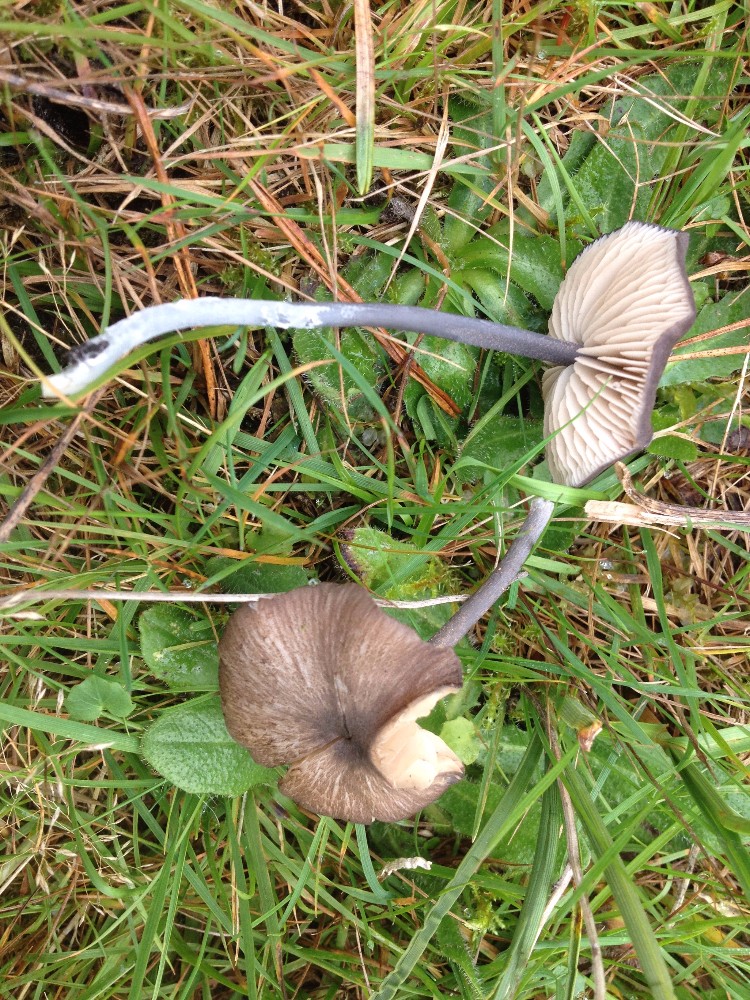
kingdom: Fungi
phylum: Basidiomycota
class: Agaricomycetes
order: Agaricales
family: Entolomataceae
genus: Entoloma
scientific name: Entoloma viiduense
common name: purpurbrun rødblad
